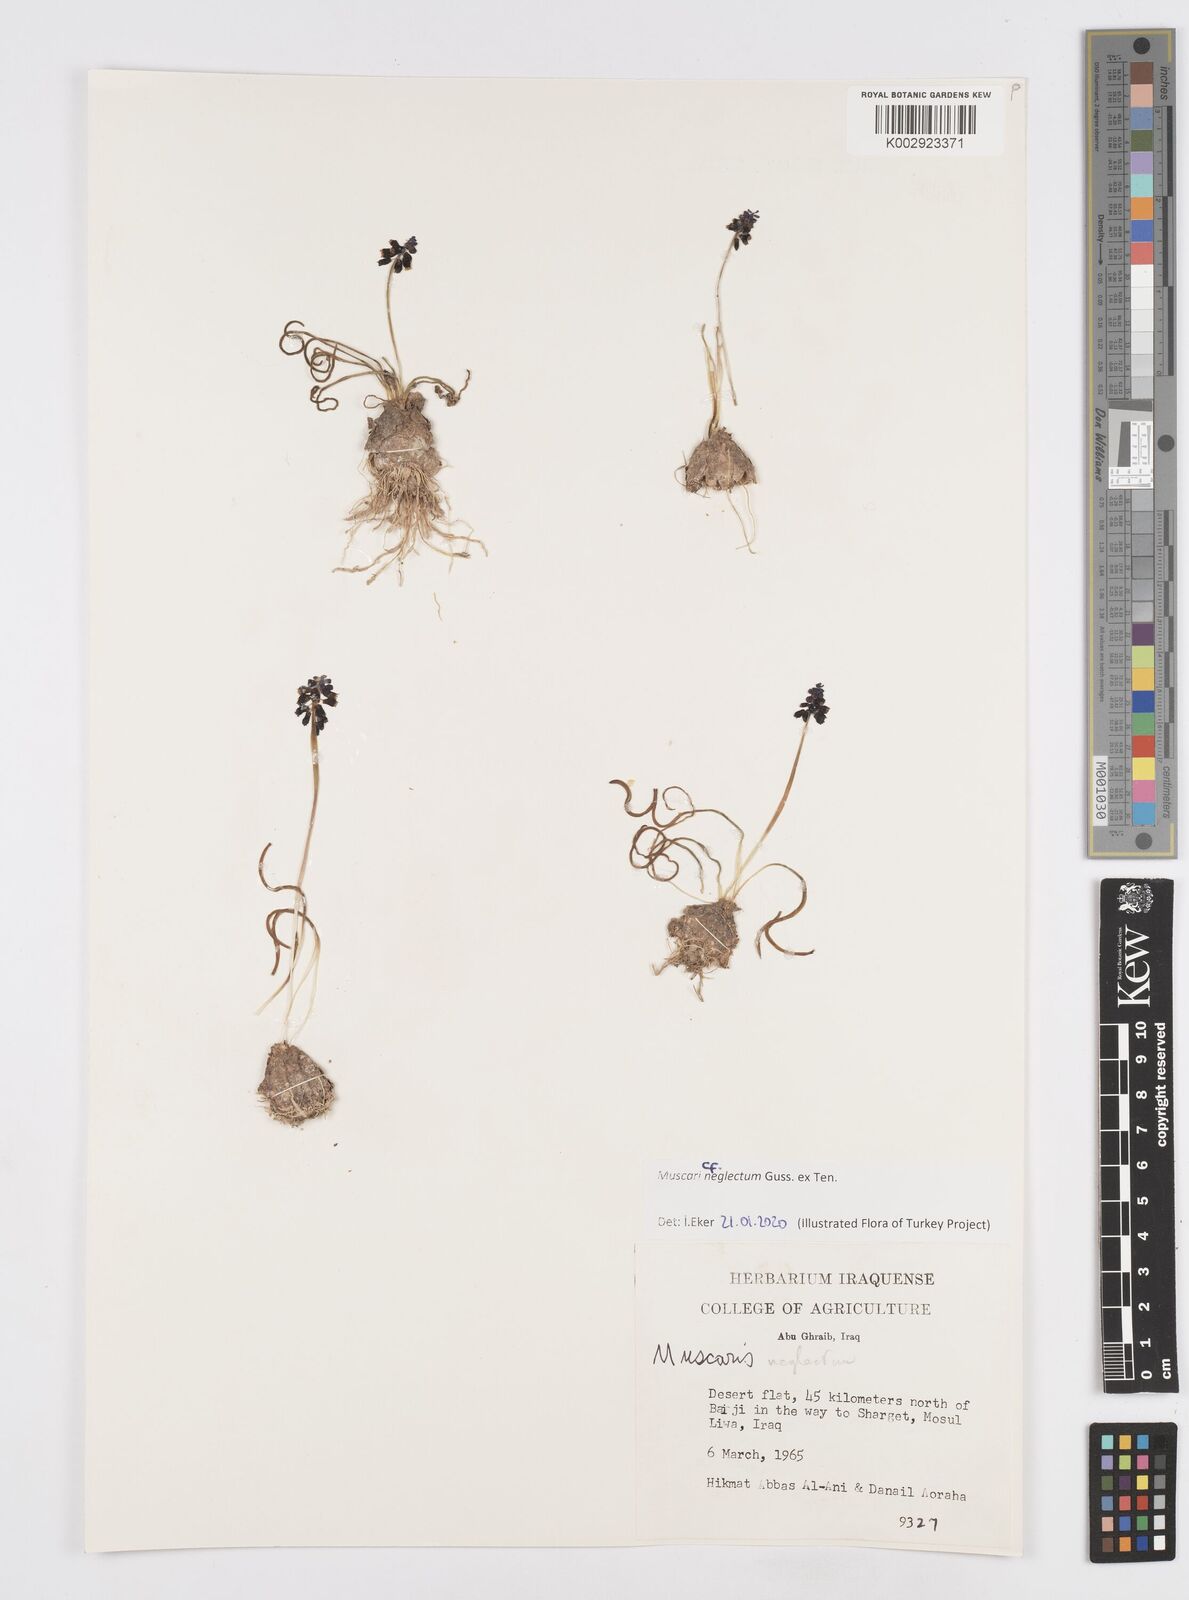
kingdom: Plantae
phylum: Tracheophyta
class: Liliopsida
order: Asparagales
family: Asparagaceae
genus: Muscari
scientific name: Muscari neglectum
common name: Grape-hyacinth
